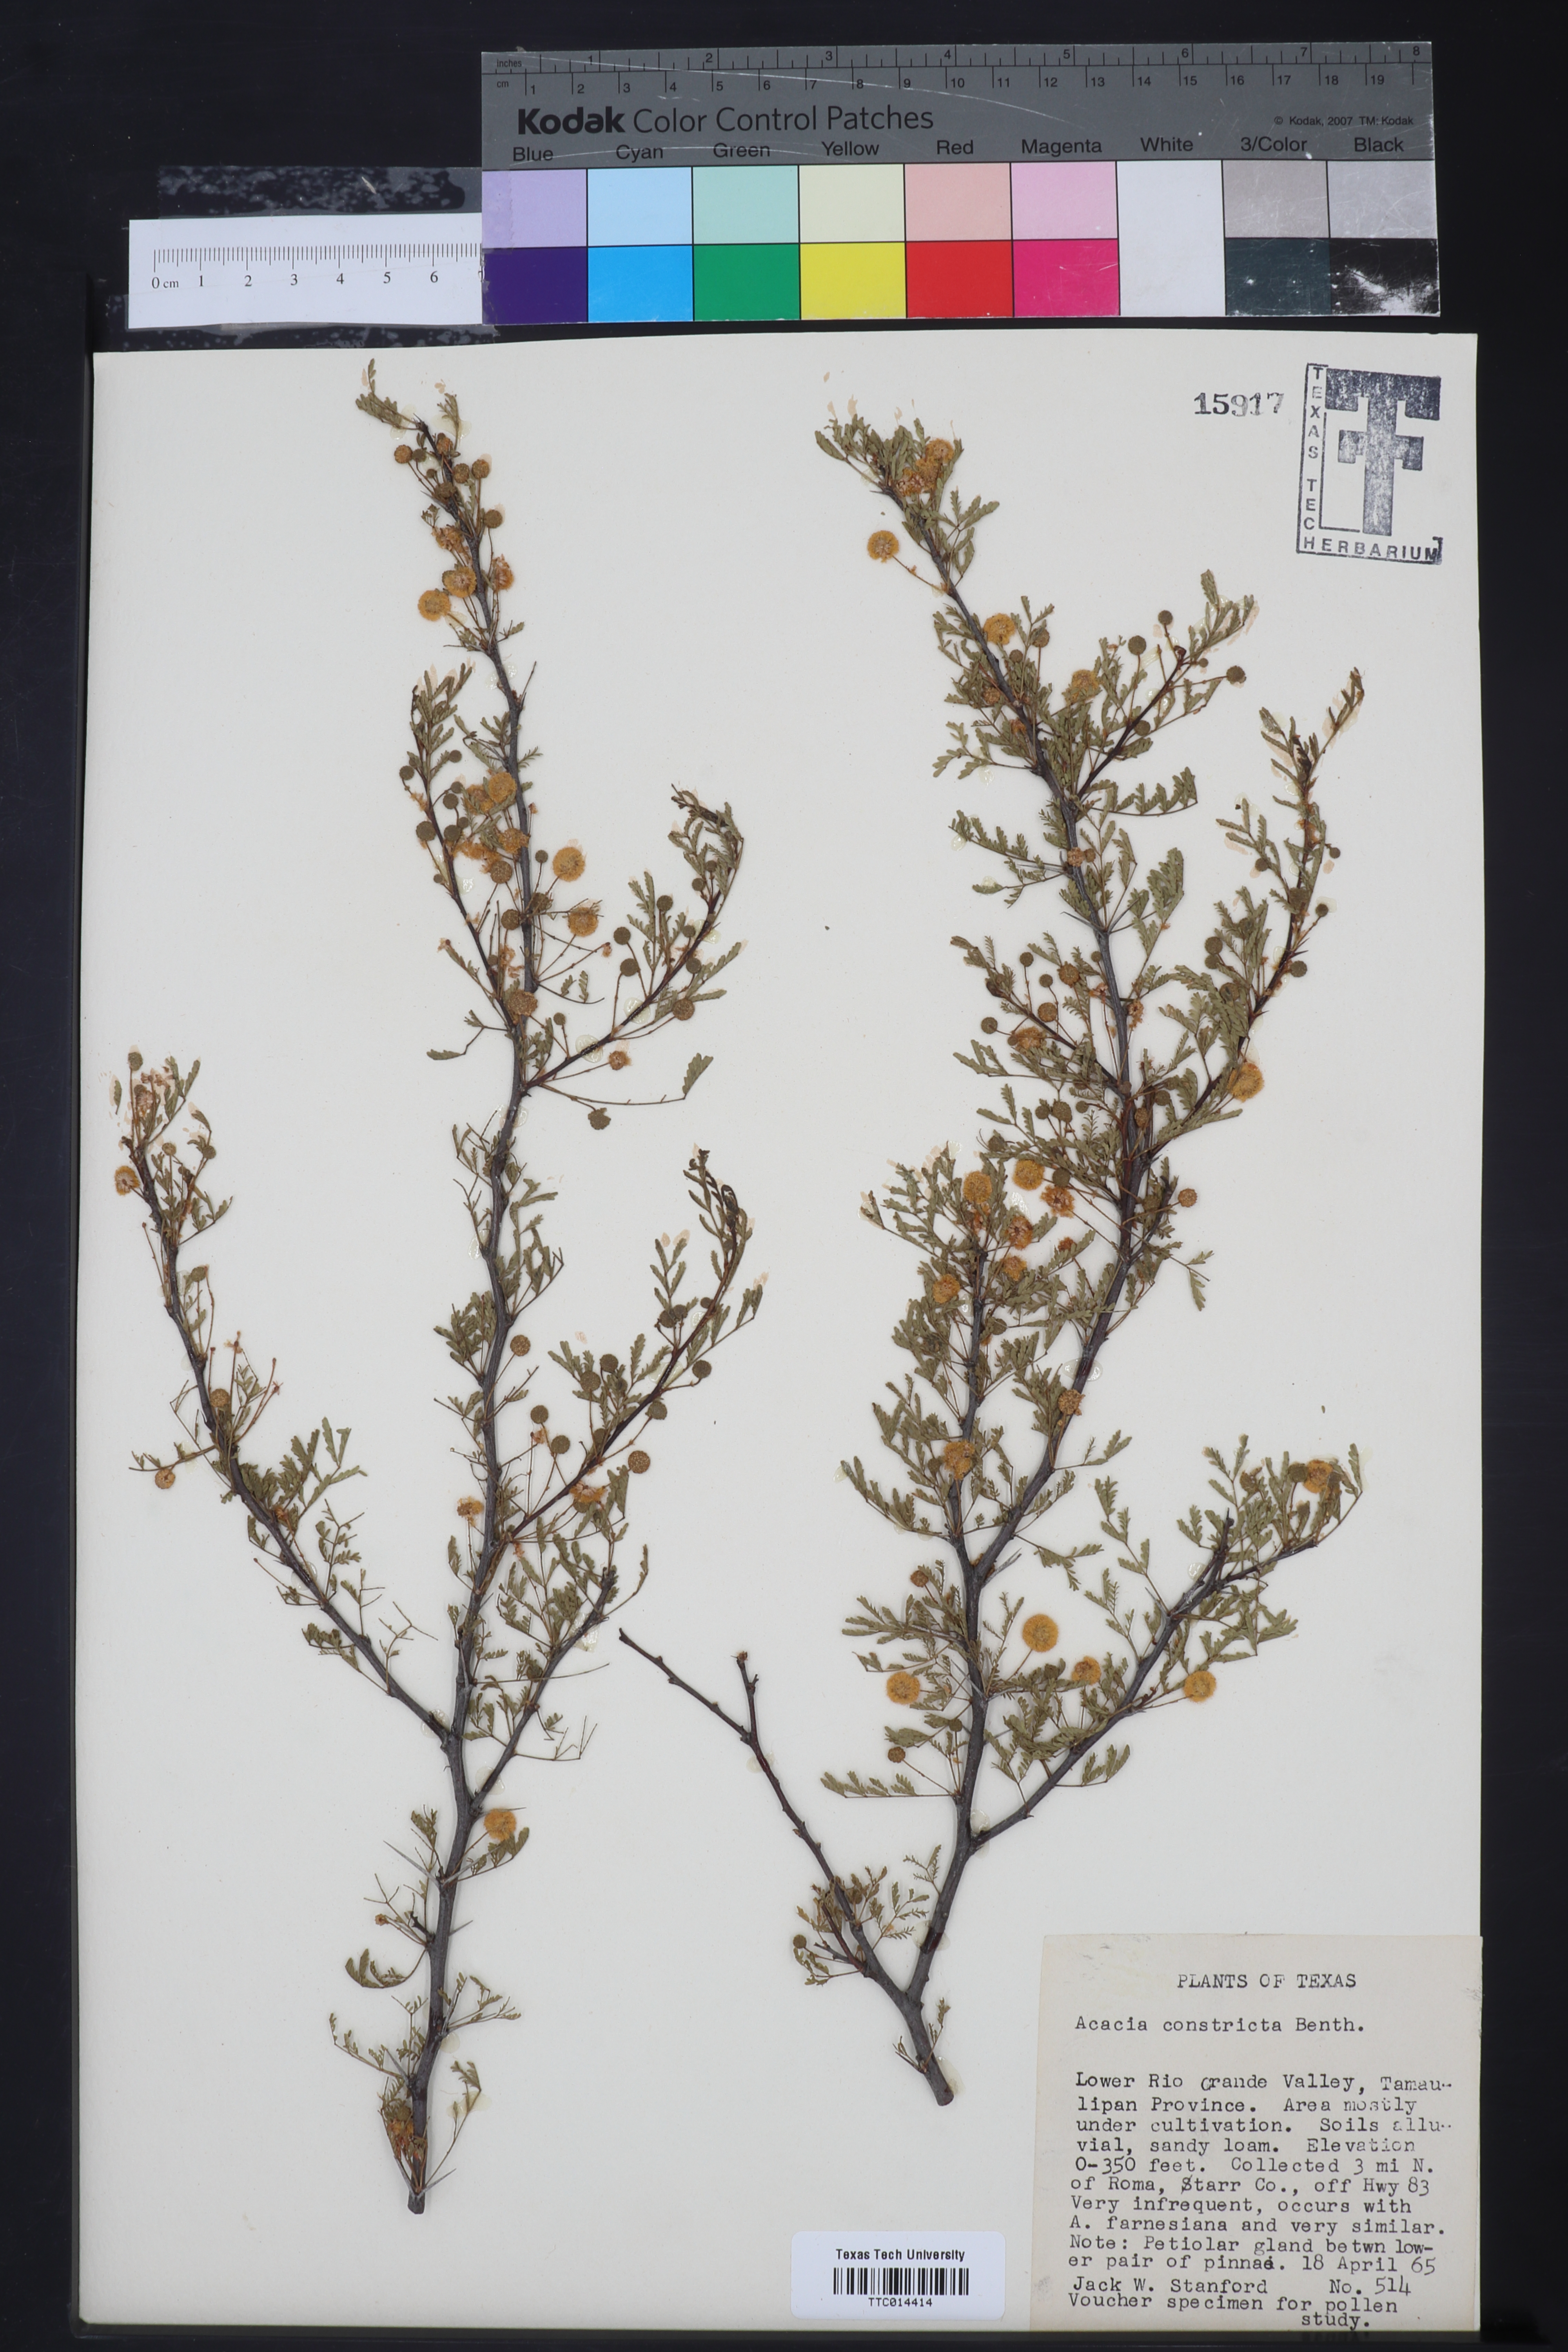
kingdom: Plantae
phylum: Tracheophyta
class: Magnoliopsida
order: Fabales
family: Fabaceae
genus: Vachellia
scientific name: Vachellia constricta
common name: Mescat acacia
